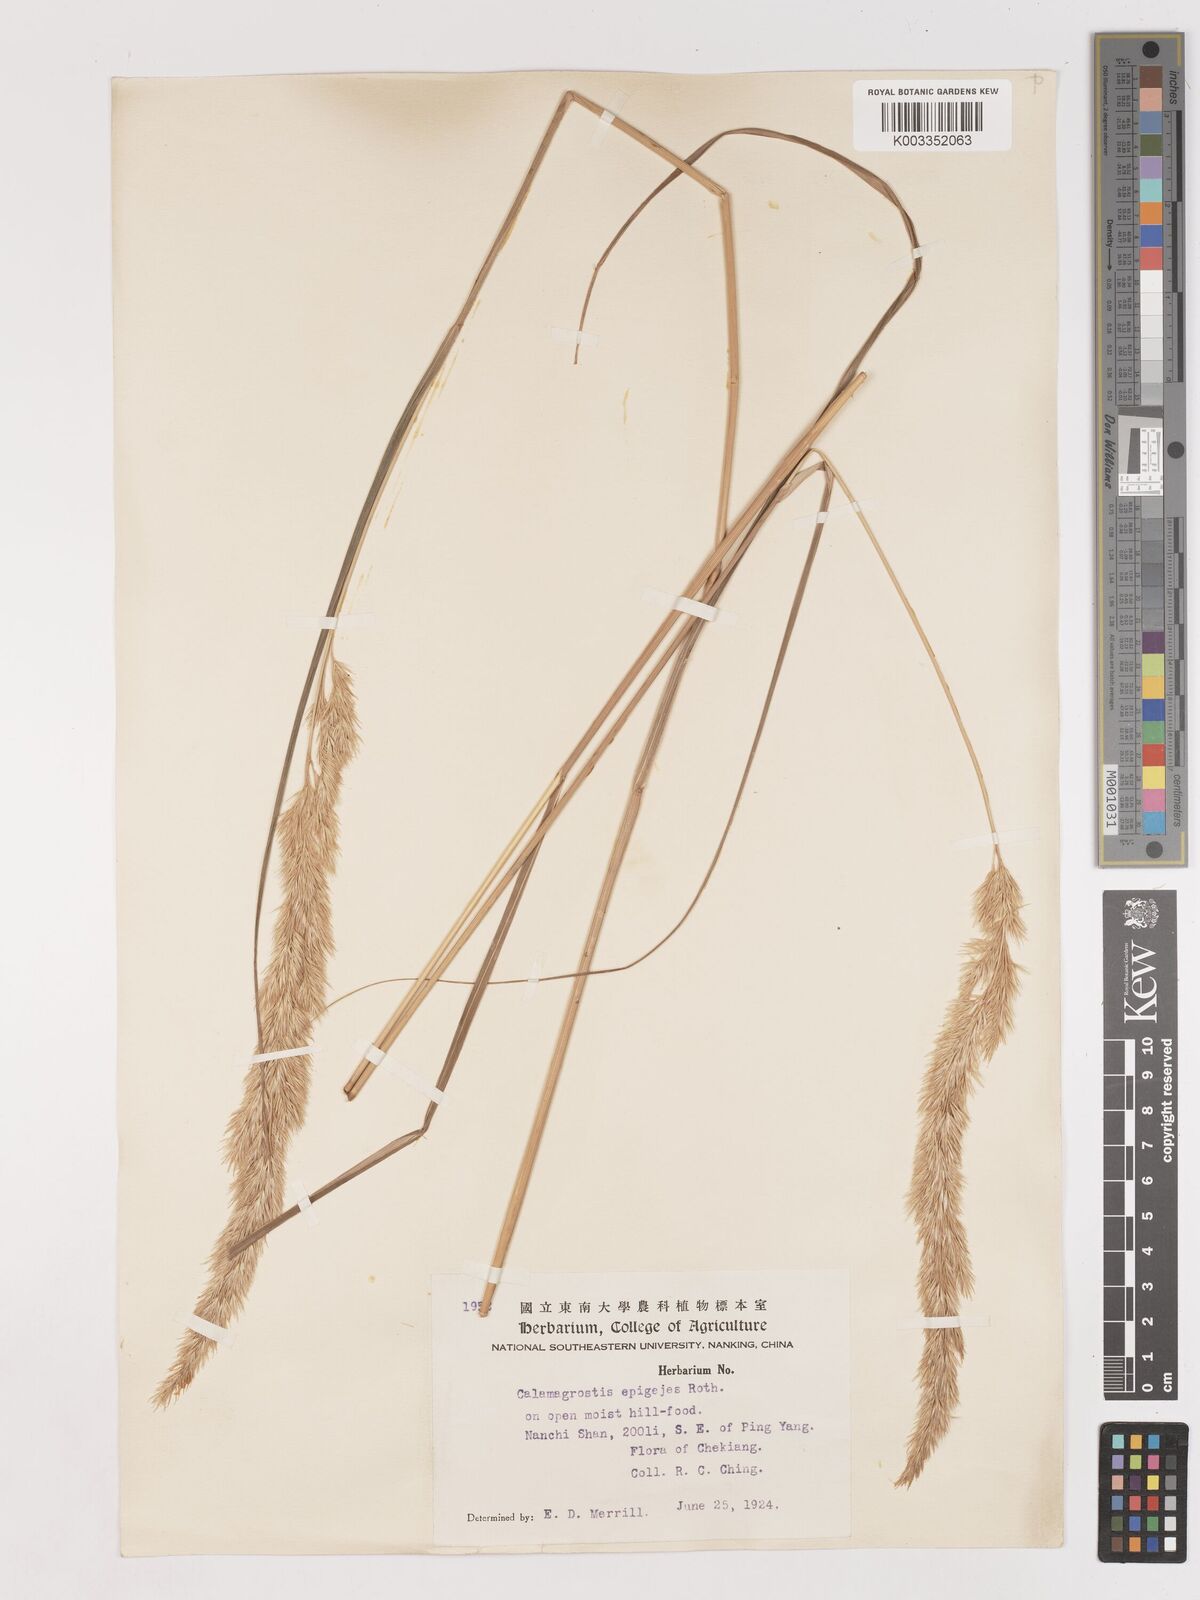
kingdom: Plantae
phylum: Tracheophyta
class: Liliopsida
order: Poales
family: Poaceae
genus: Calamagrostis
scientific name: Calamagrostis epigejos
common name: Wood small-reed
